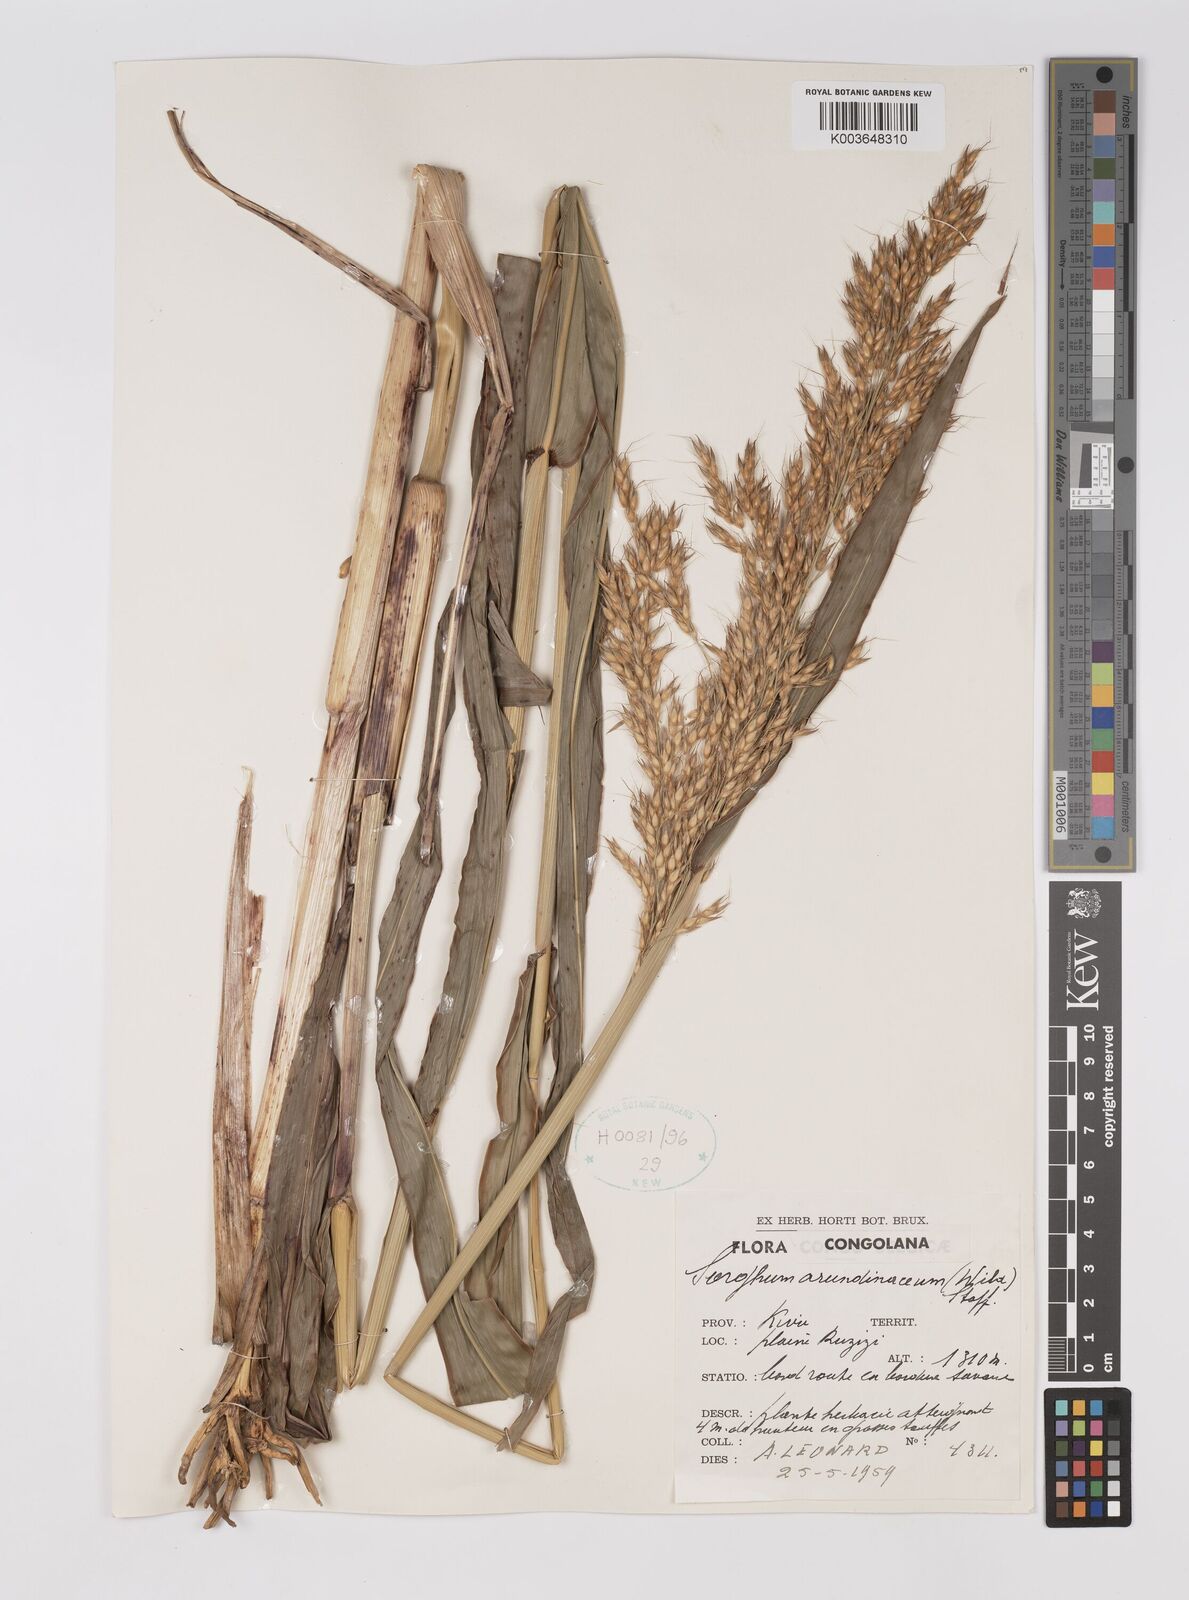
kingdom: Plantae
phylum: Tracheophyta
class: Liliopsida
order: Poales
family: Poaceae
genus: Sorghum
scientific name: Sorghum arundinaceum
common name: Sorghum
